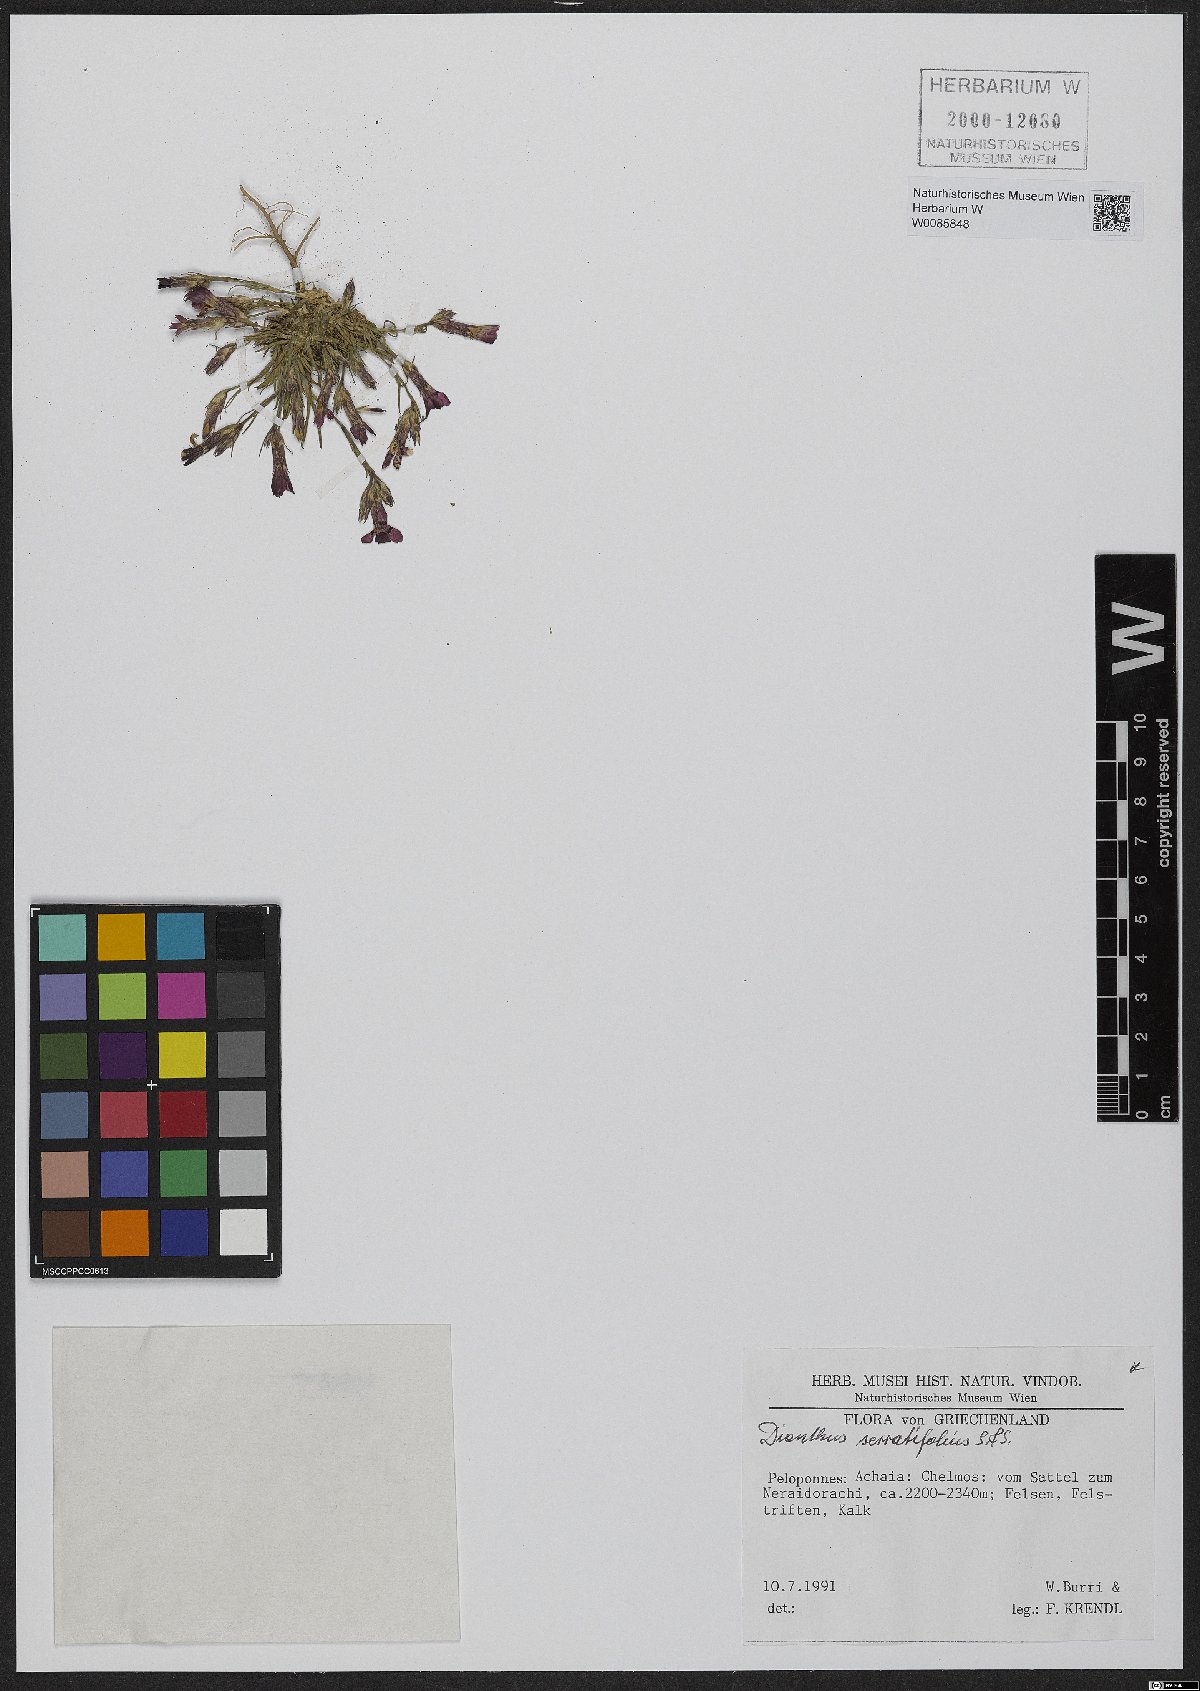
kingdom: Plantae
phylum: Tracheophyta
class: Magnoliopsida
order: Caryophyllales
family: Caryophyllaceae
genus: Dianthus
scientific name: Dianthus serratifolius
